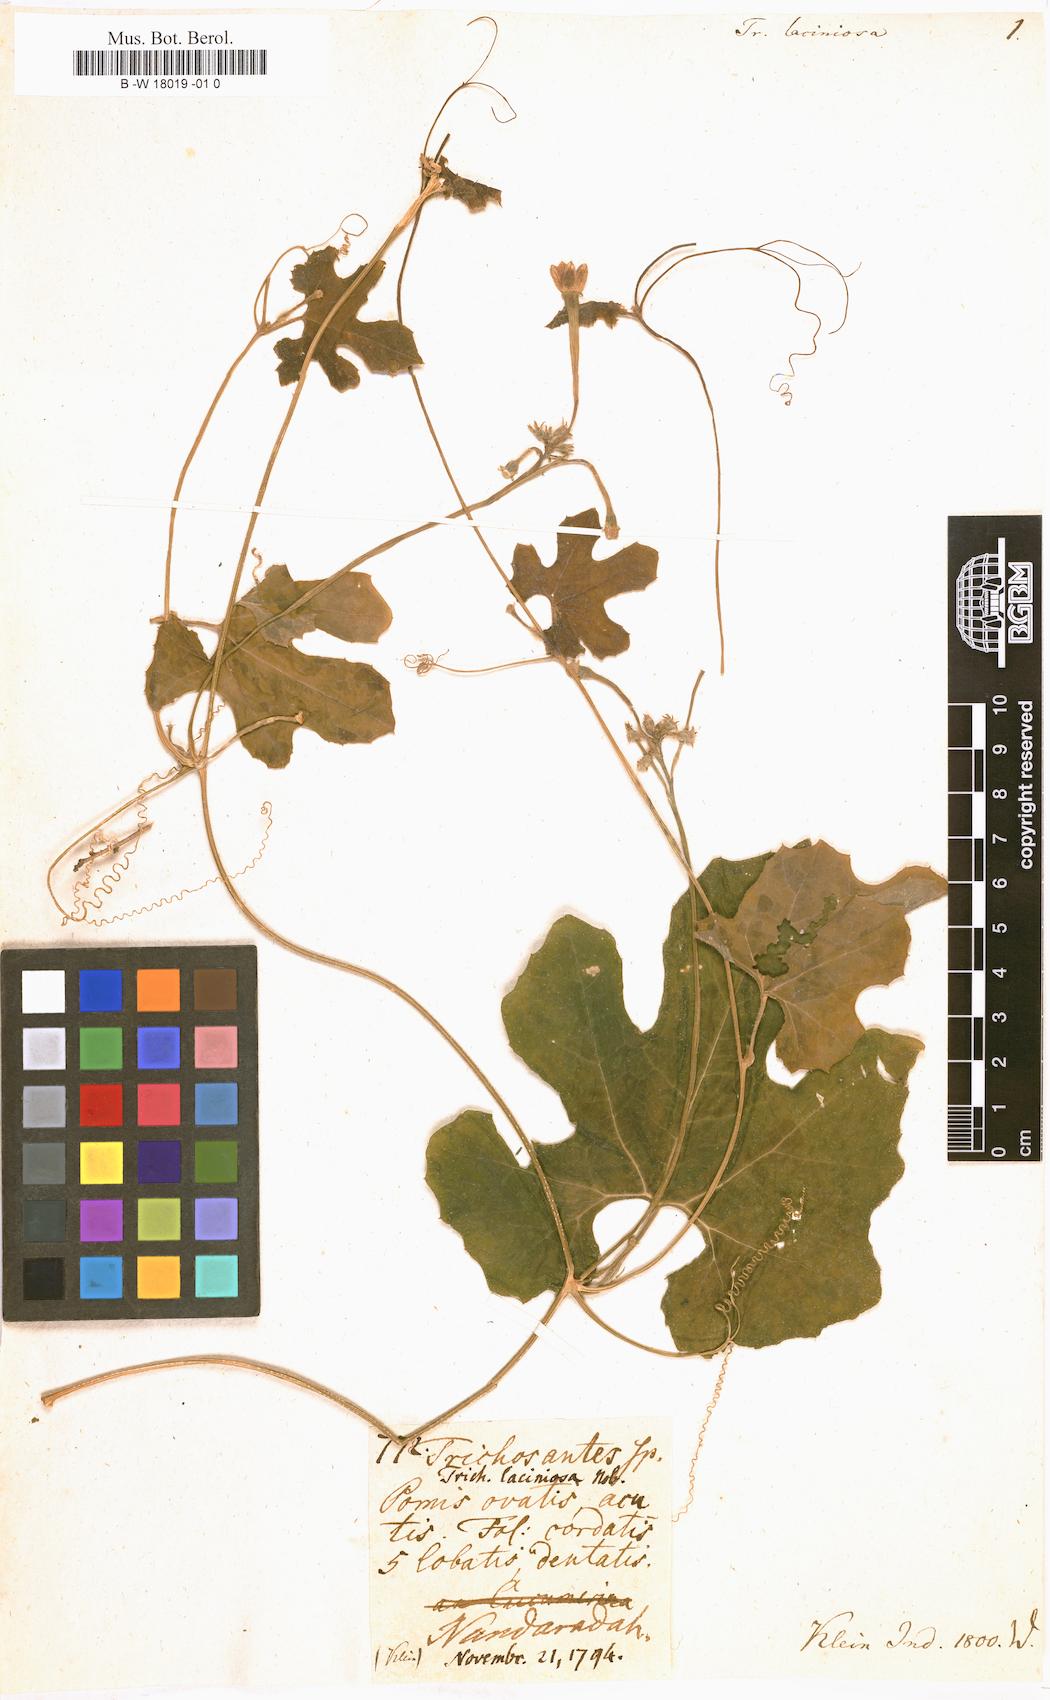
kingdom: Plantae
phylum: Tracheophyta
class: Magnoliopsida
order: Cucurbitales
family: Cucurbitaceae
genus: Trichosanthes
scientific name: Trichosanthes
